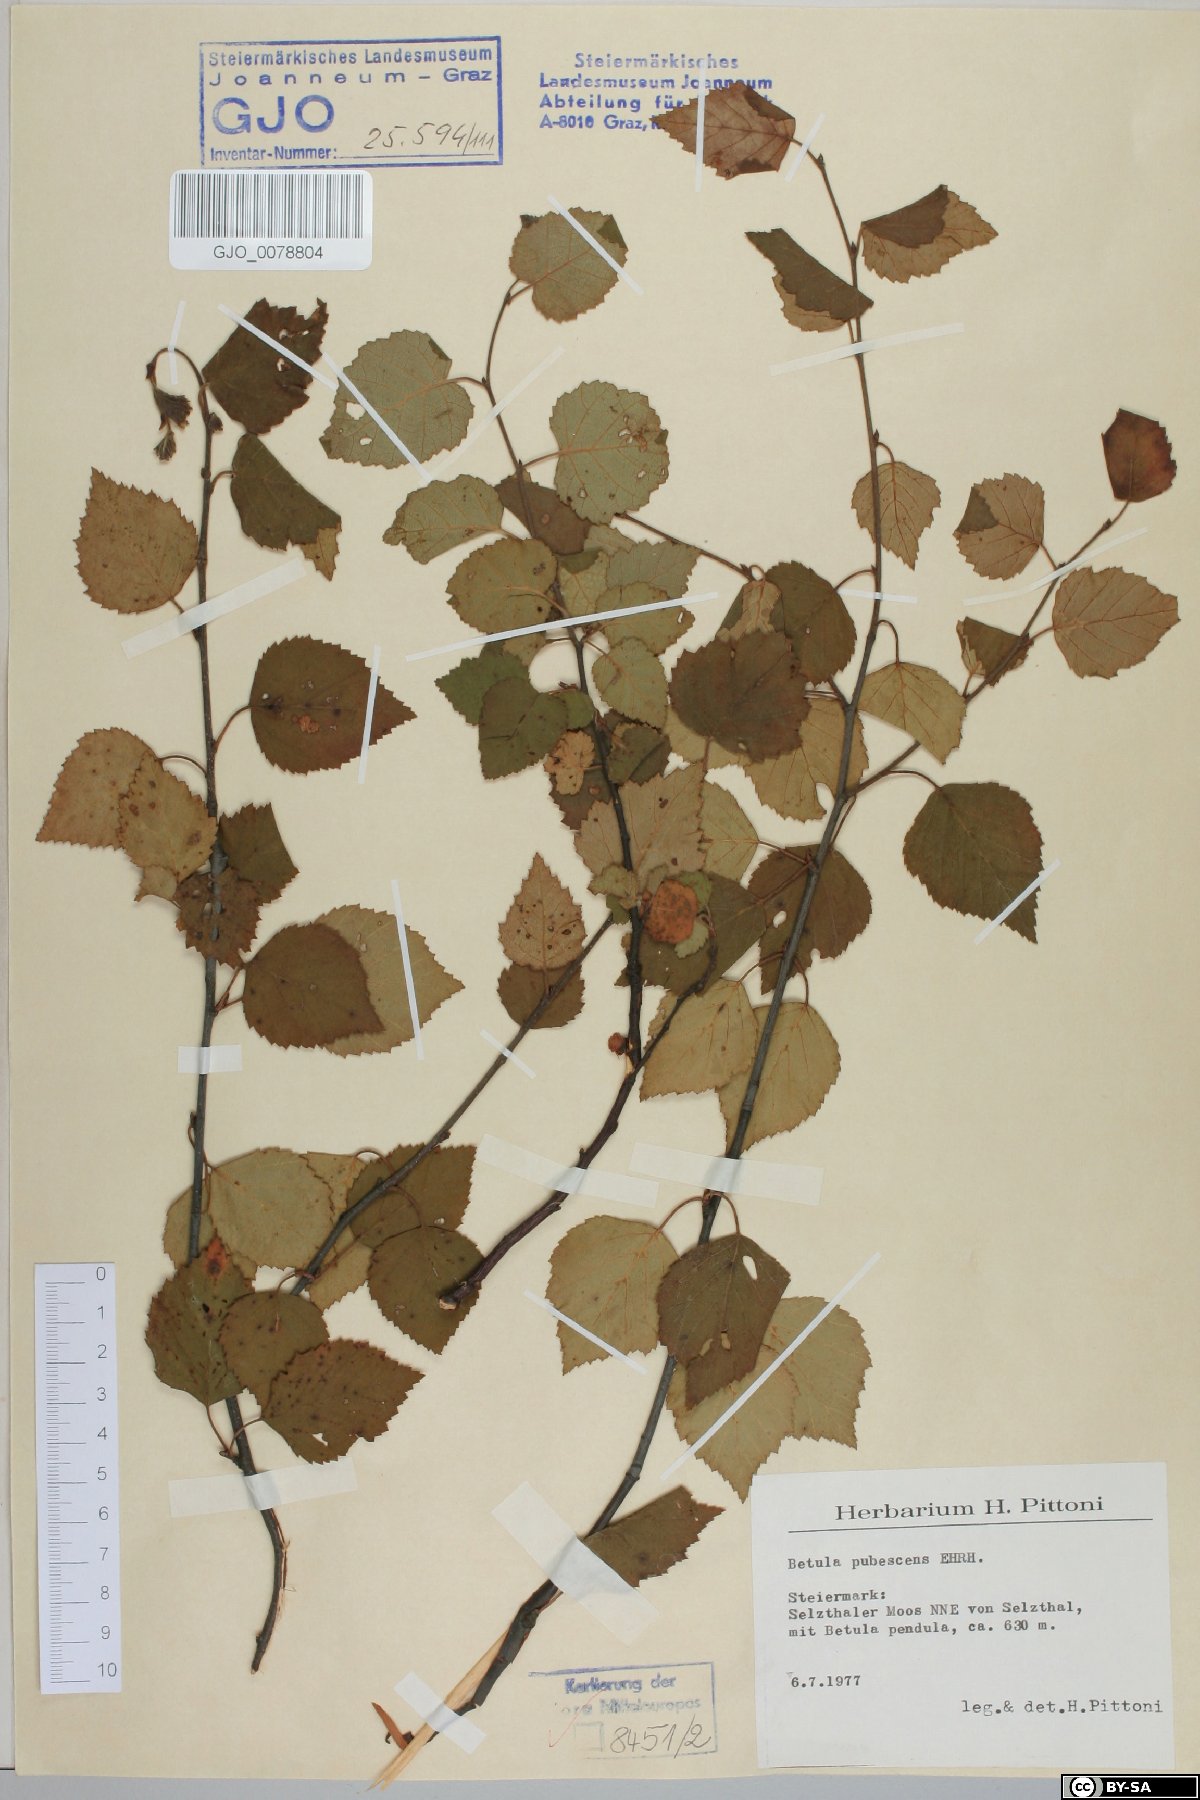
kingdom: Plantae
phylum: Tracheophyta
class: Magnoliopsida
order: Fagales
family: Betulaceae
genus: Betula
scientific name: Betula pubescens
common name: Downy birch
